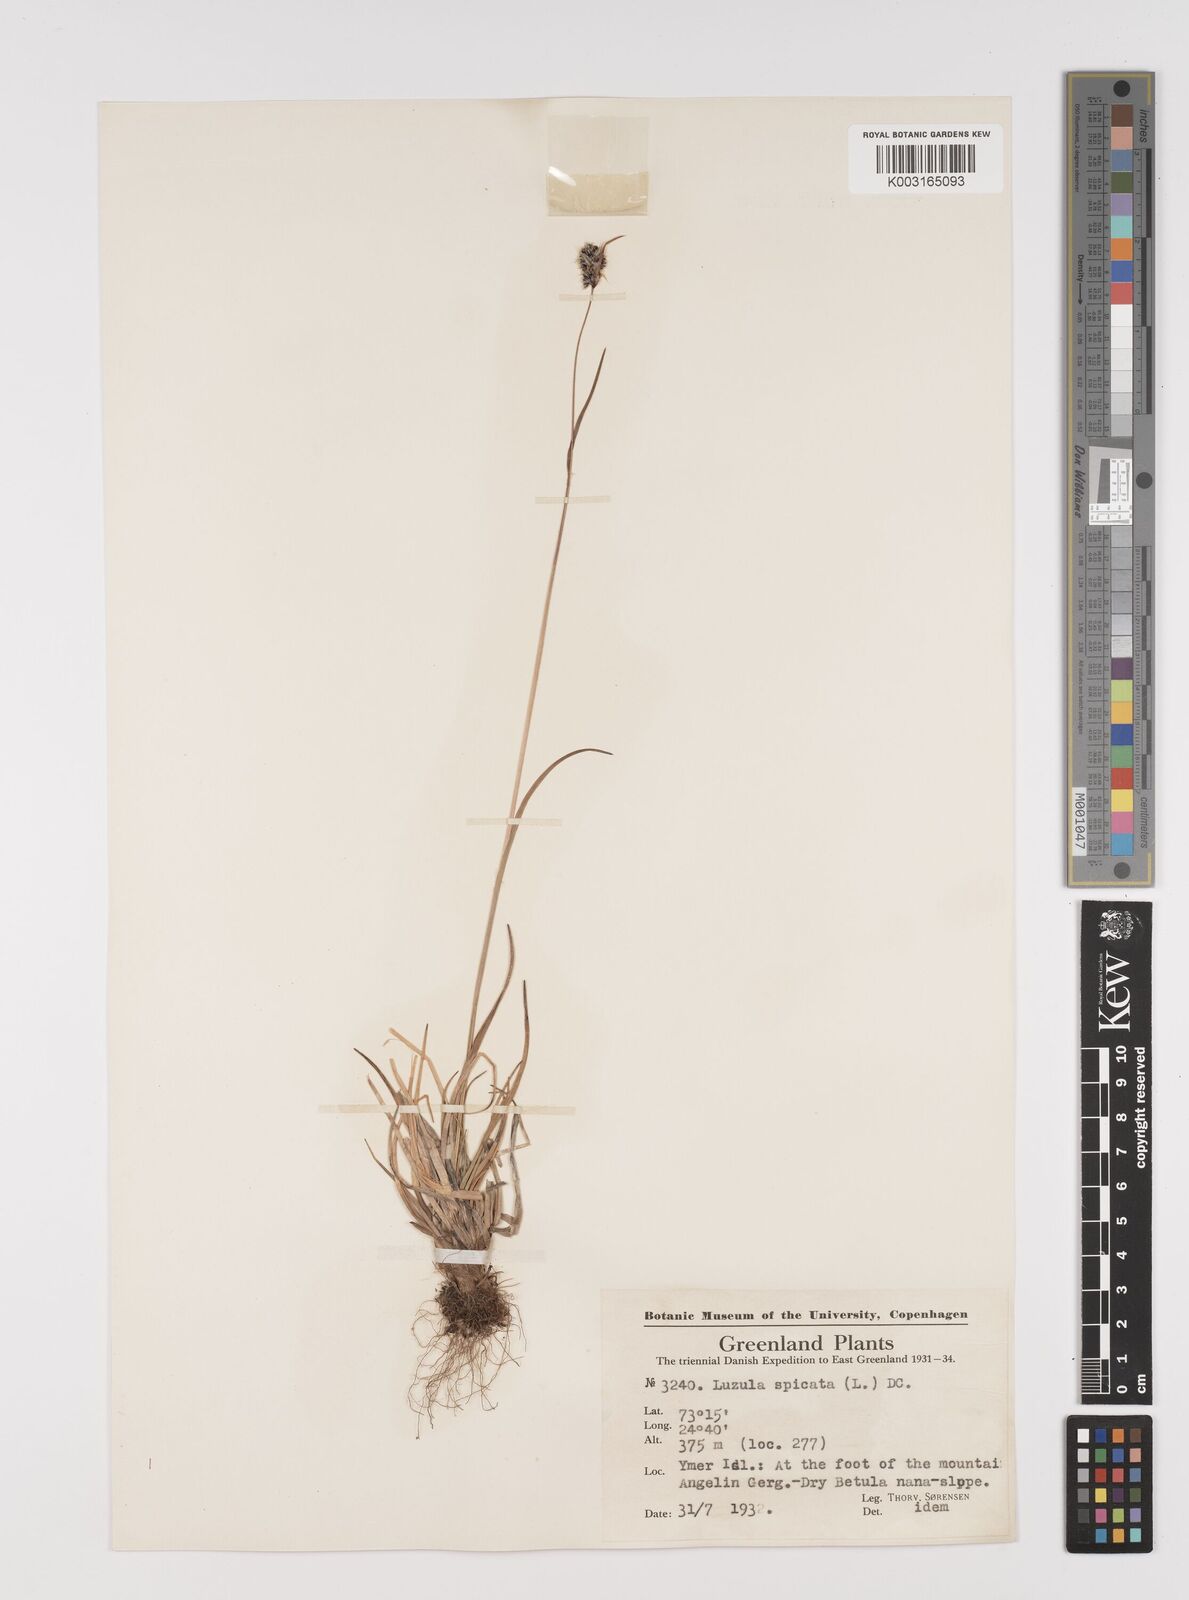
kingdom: Plantae
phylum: Tracheophyta
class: Liliopsida
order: Poales
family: Juncaceae
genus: Luzula
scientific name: Luzula spicata
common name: Spiked wood-rush
